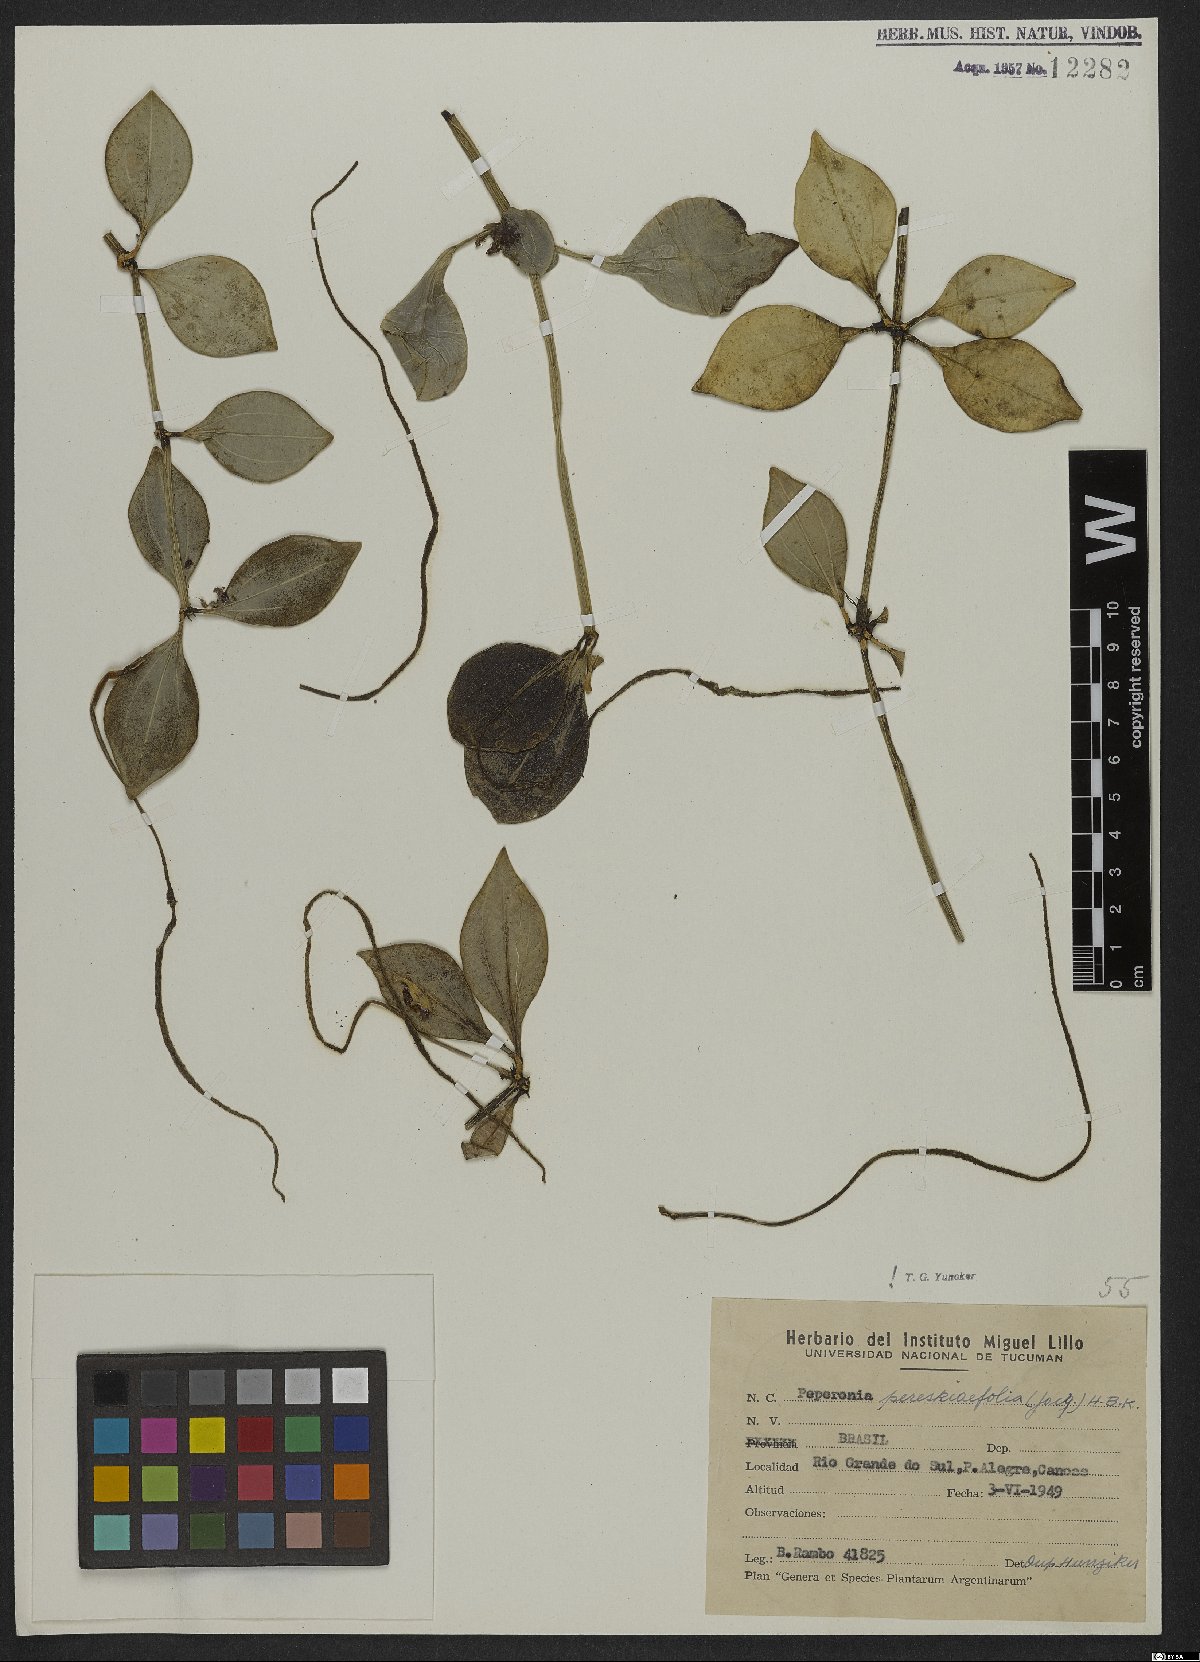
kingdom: Plantae
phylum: Tracheophyta
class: Magnoliopsida
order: Piperales
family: Piperaceae
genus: Peperomia
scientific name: Peperomia pereskiifolia
